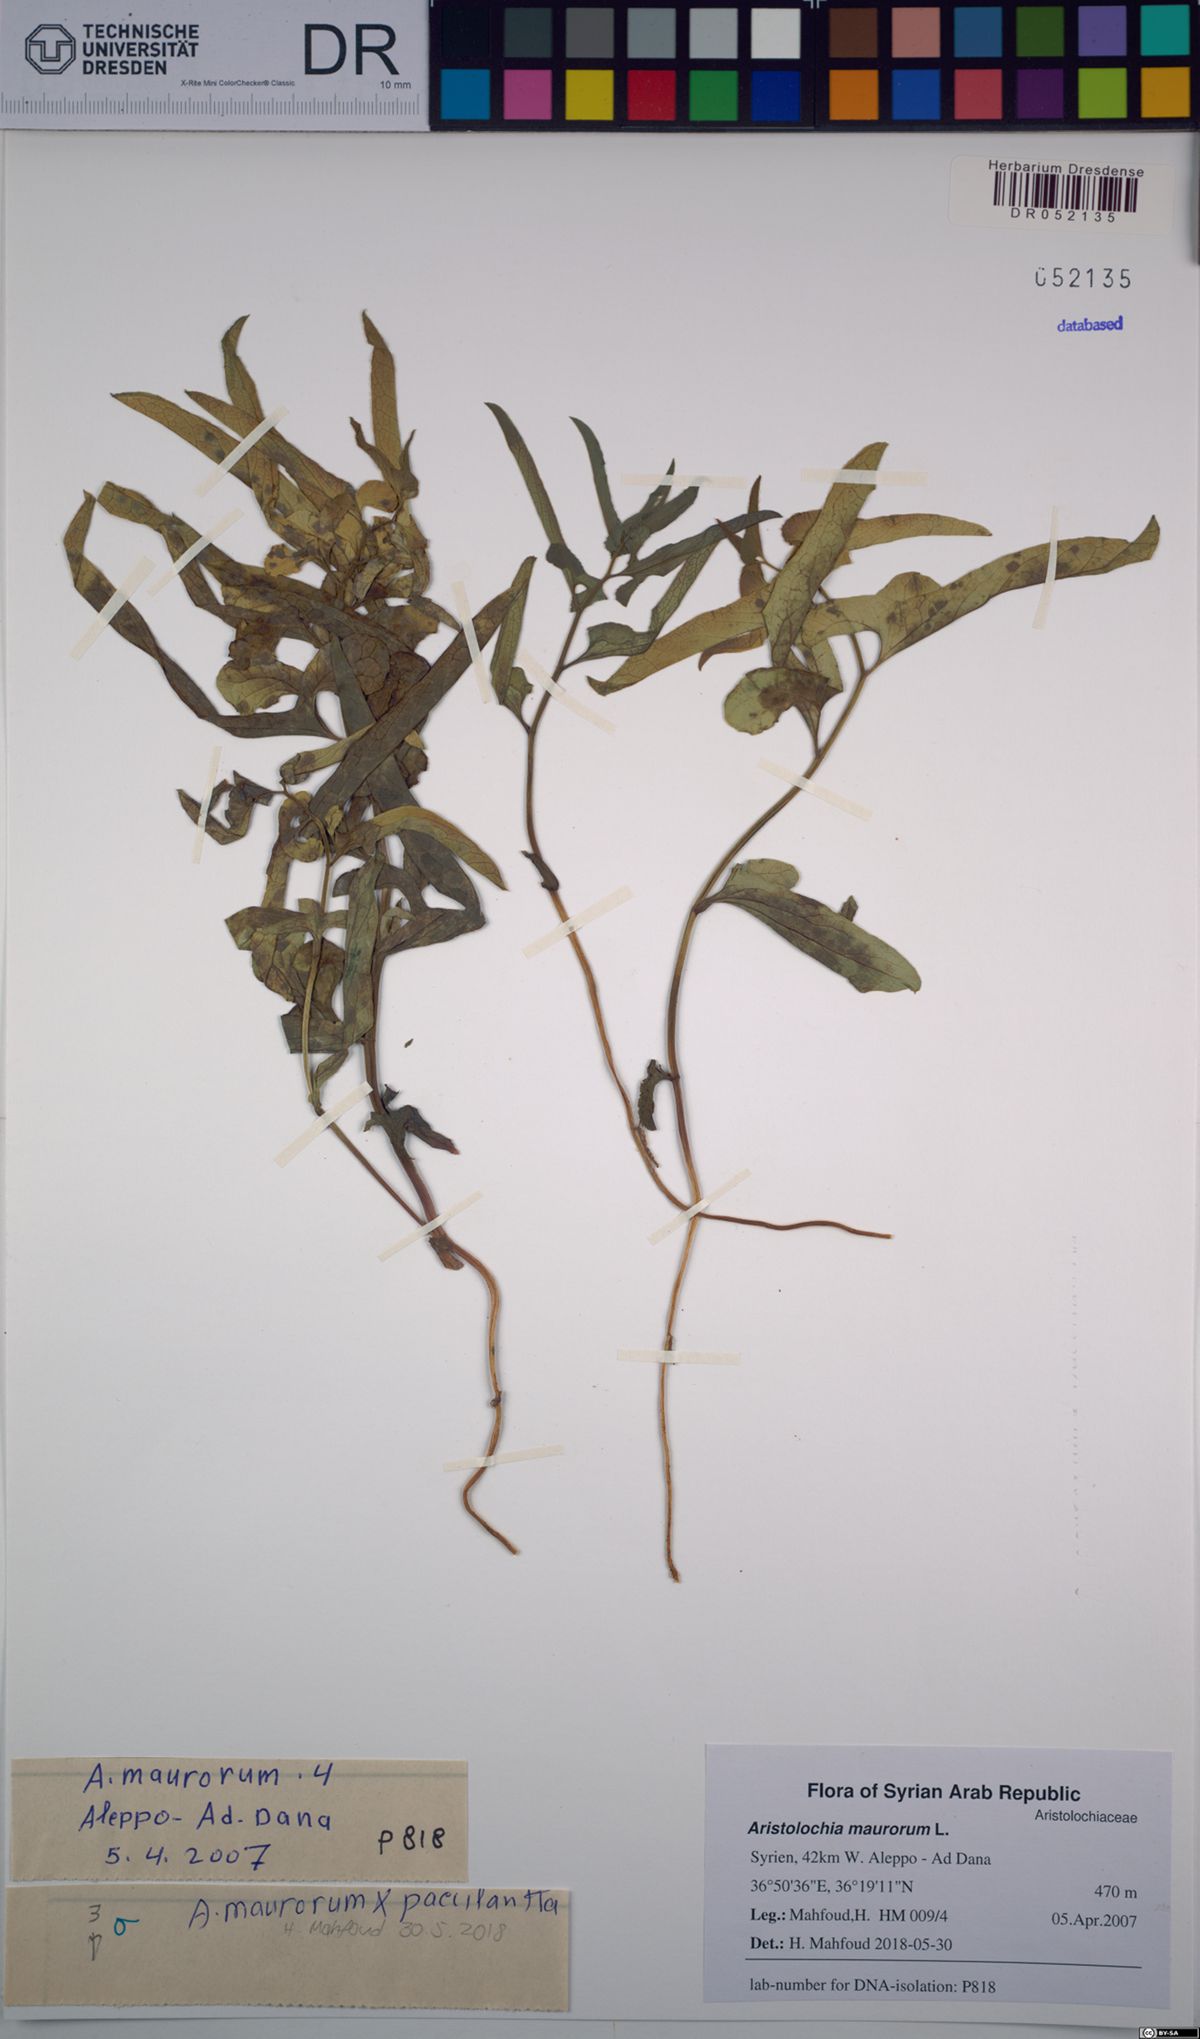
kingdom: Plantae
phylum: Tracheophyta
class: Magnoliopsida
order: Piperales
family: Aristolochiaceae
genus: Aristolochia
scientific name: Aristolochia maurorum
